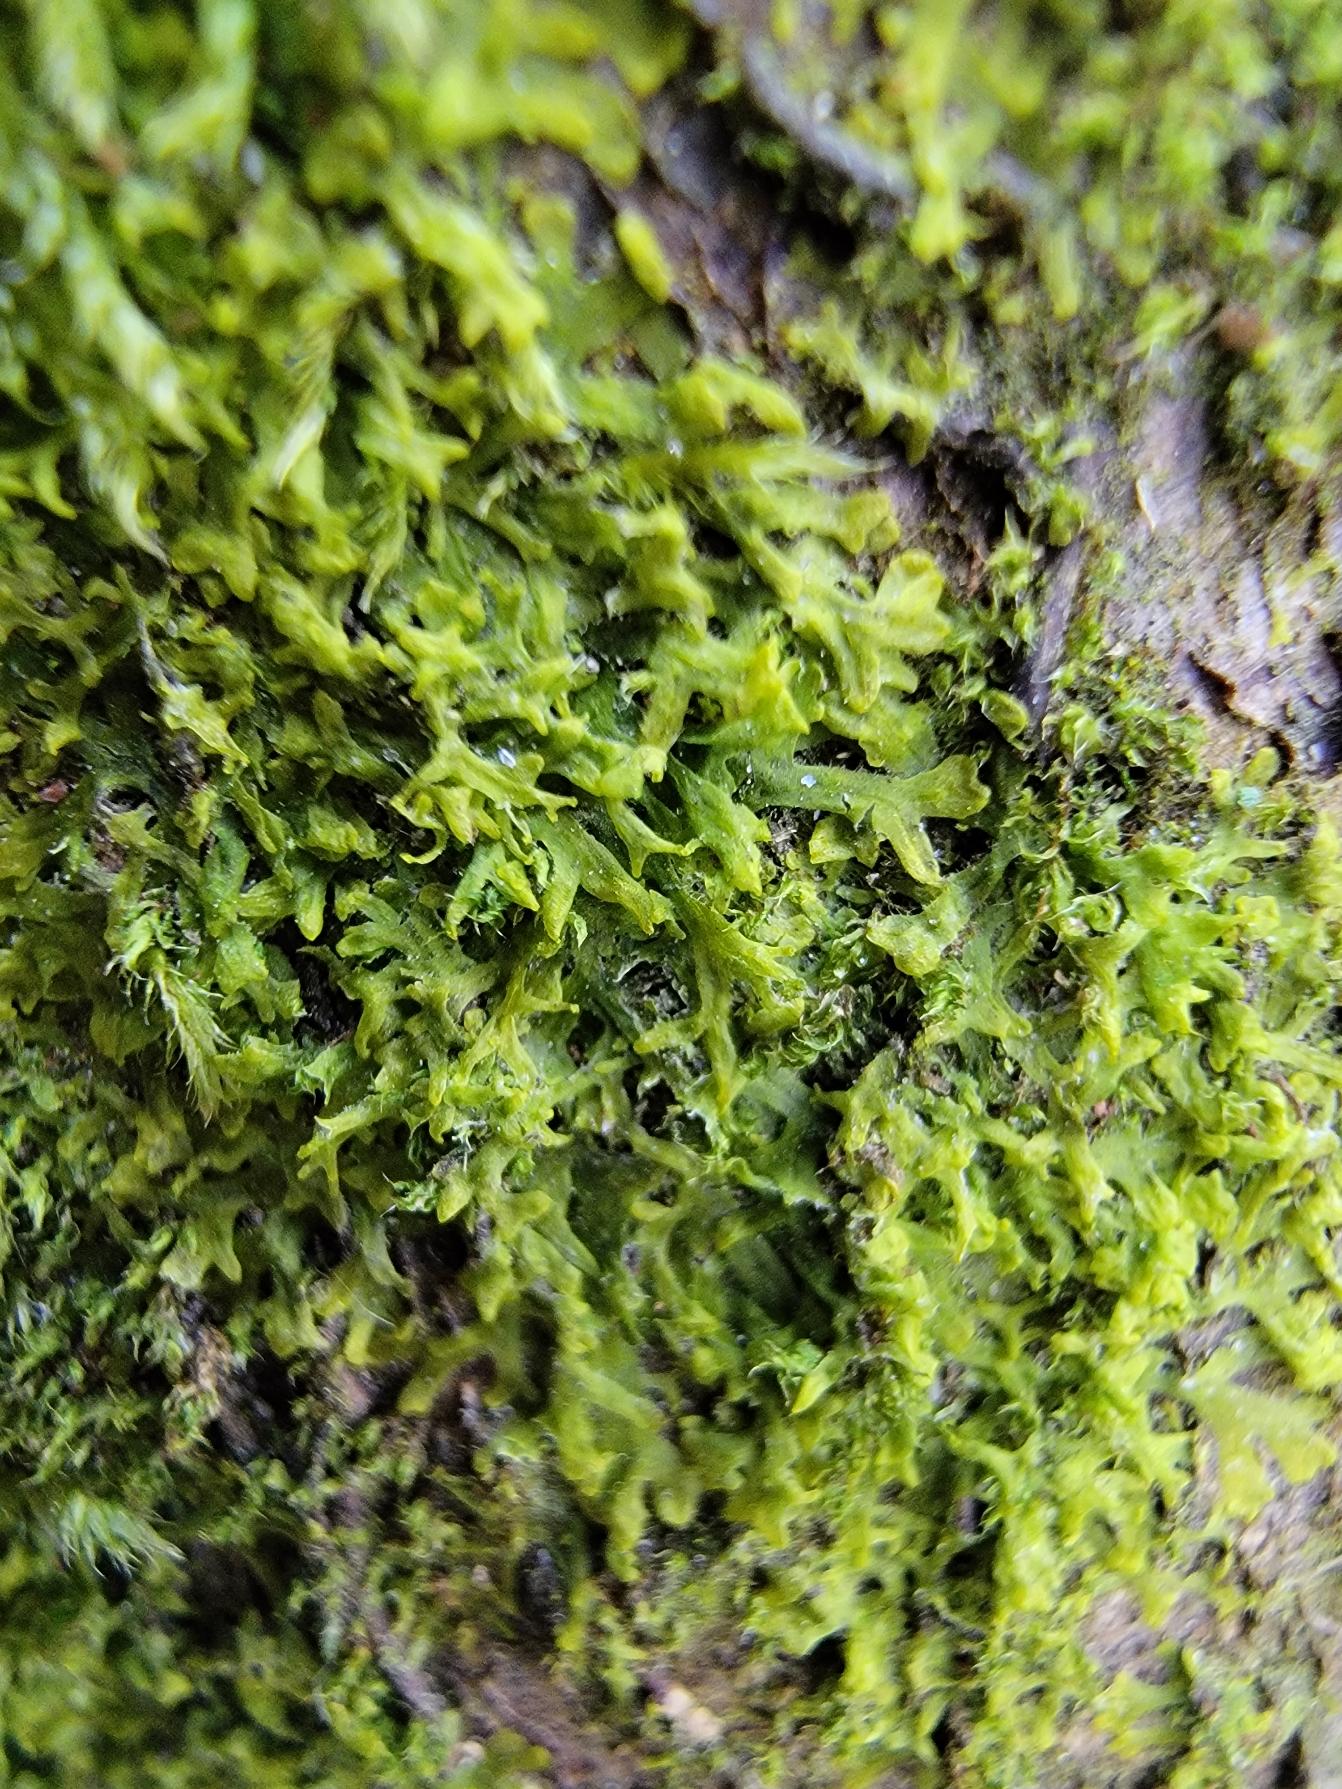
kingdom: Plantae
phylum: Marchantiophyta
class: Jungermanniopsida
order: Metzgeriales
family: Aneuraceae
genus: Riccardia
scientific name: Riccardia palmata
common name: Blågrøn gaffelløv
